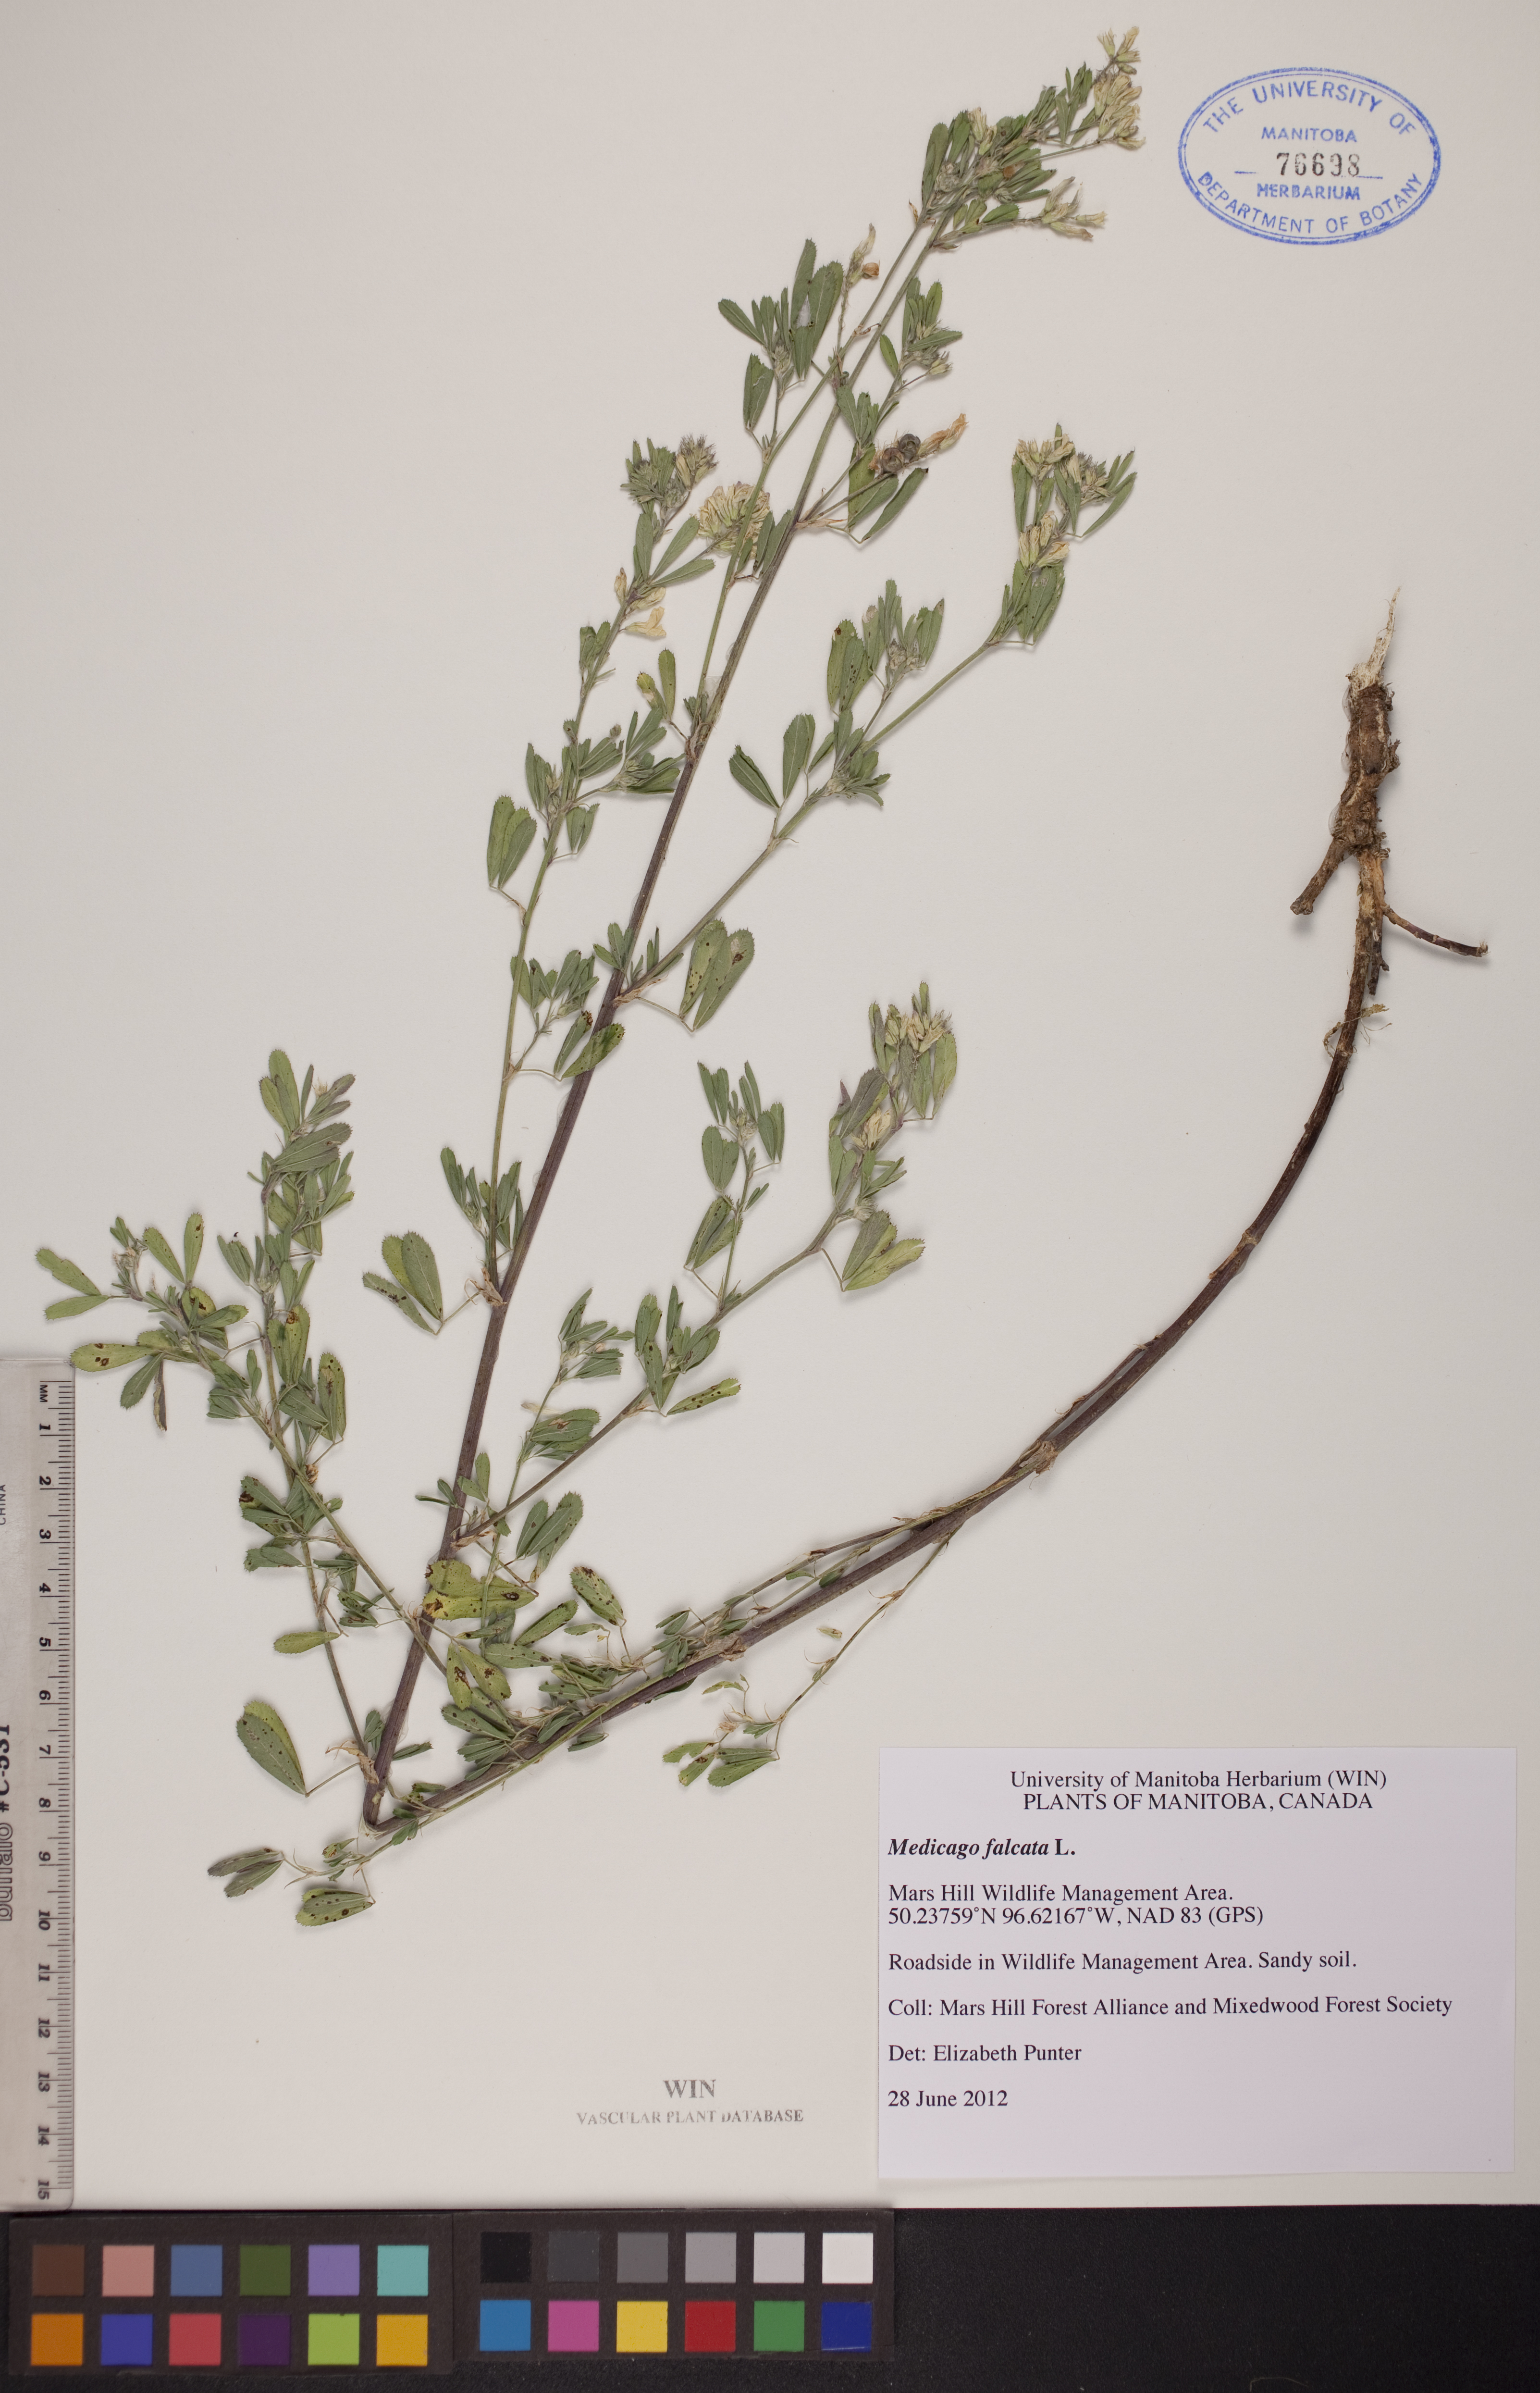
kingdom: Plantae
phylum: Tracheophyta
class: Magnoliopsida
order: Fabales
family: Fabaceae
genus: Medicago
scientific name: Medicago sativa
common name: Alfalfa
